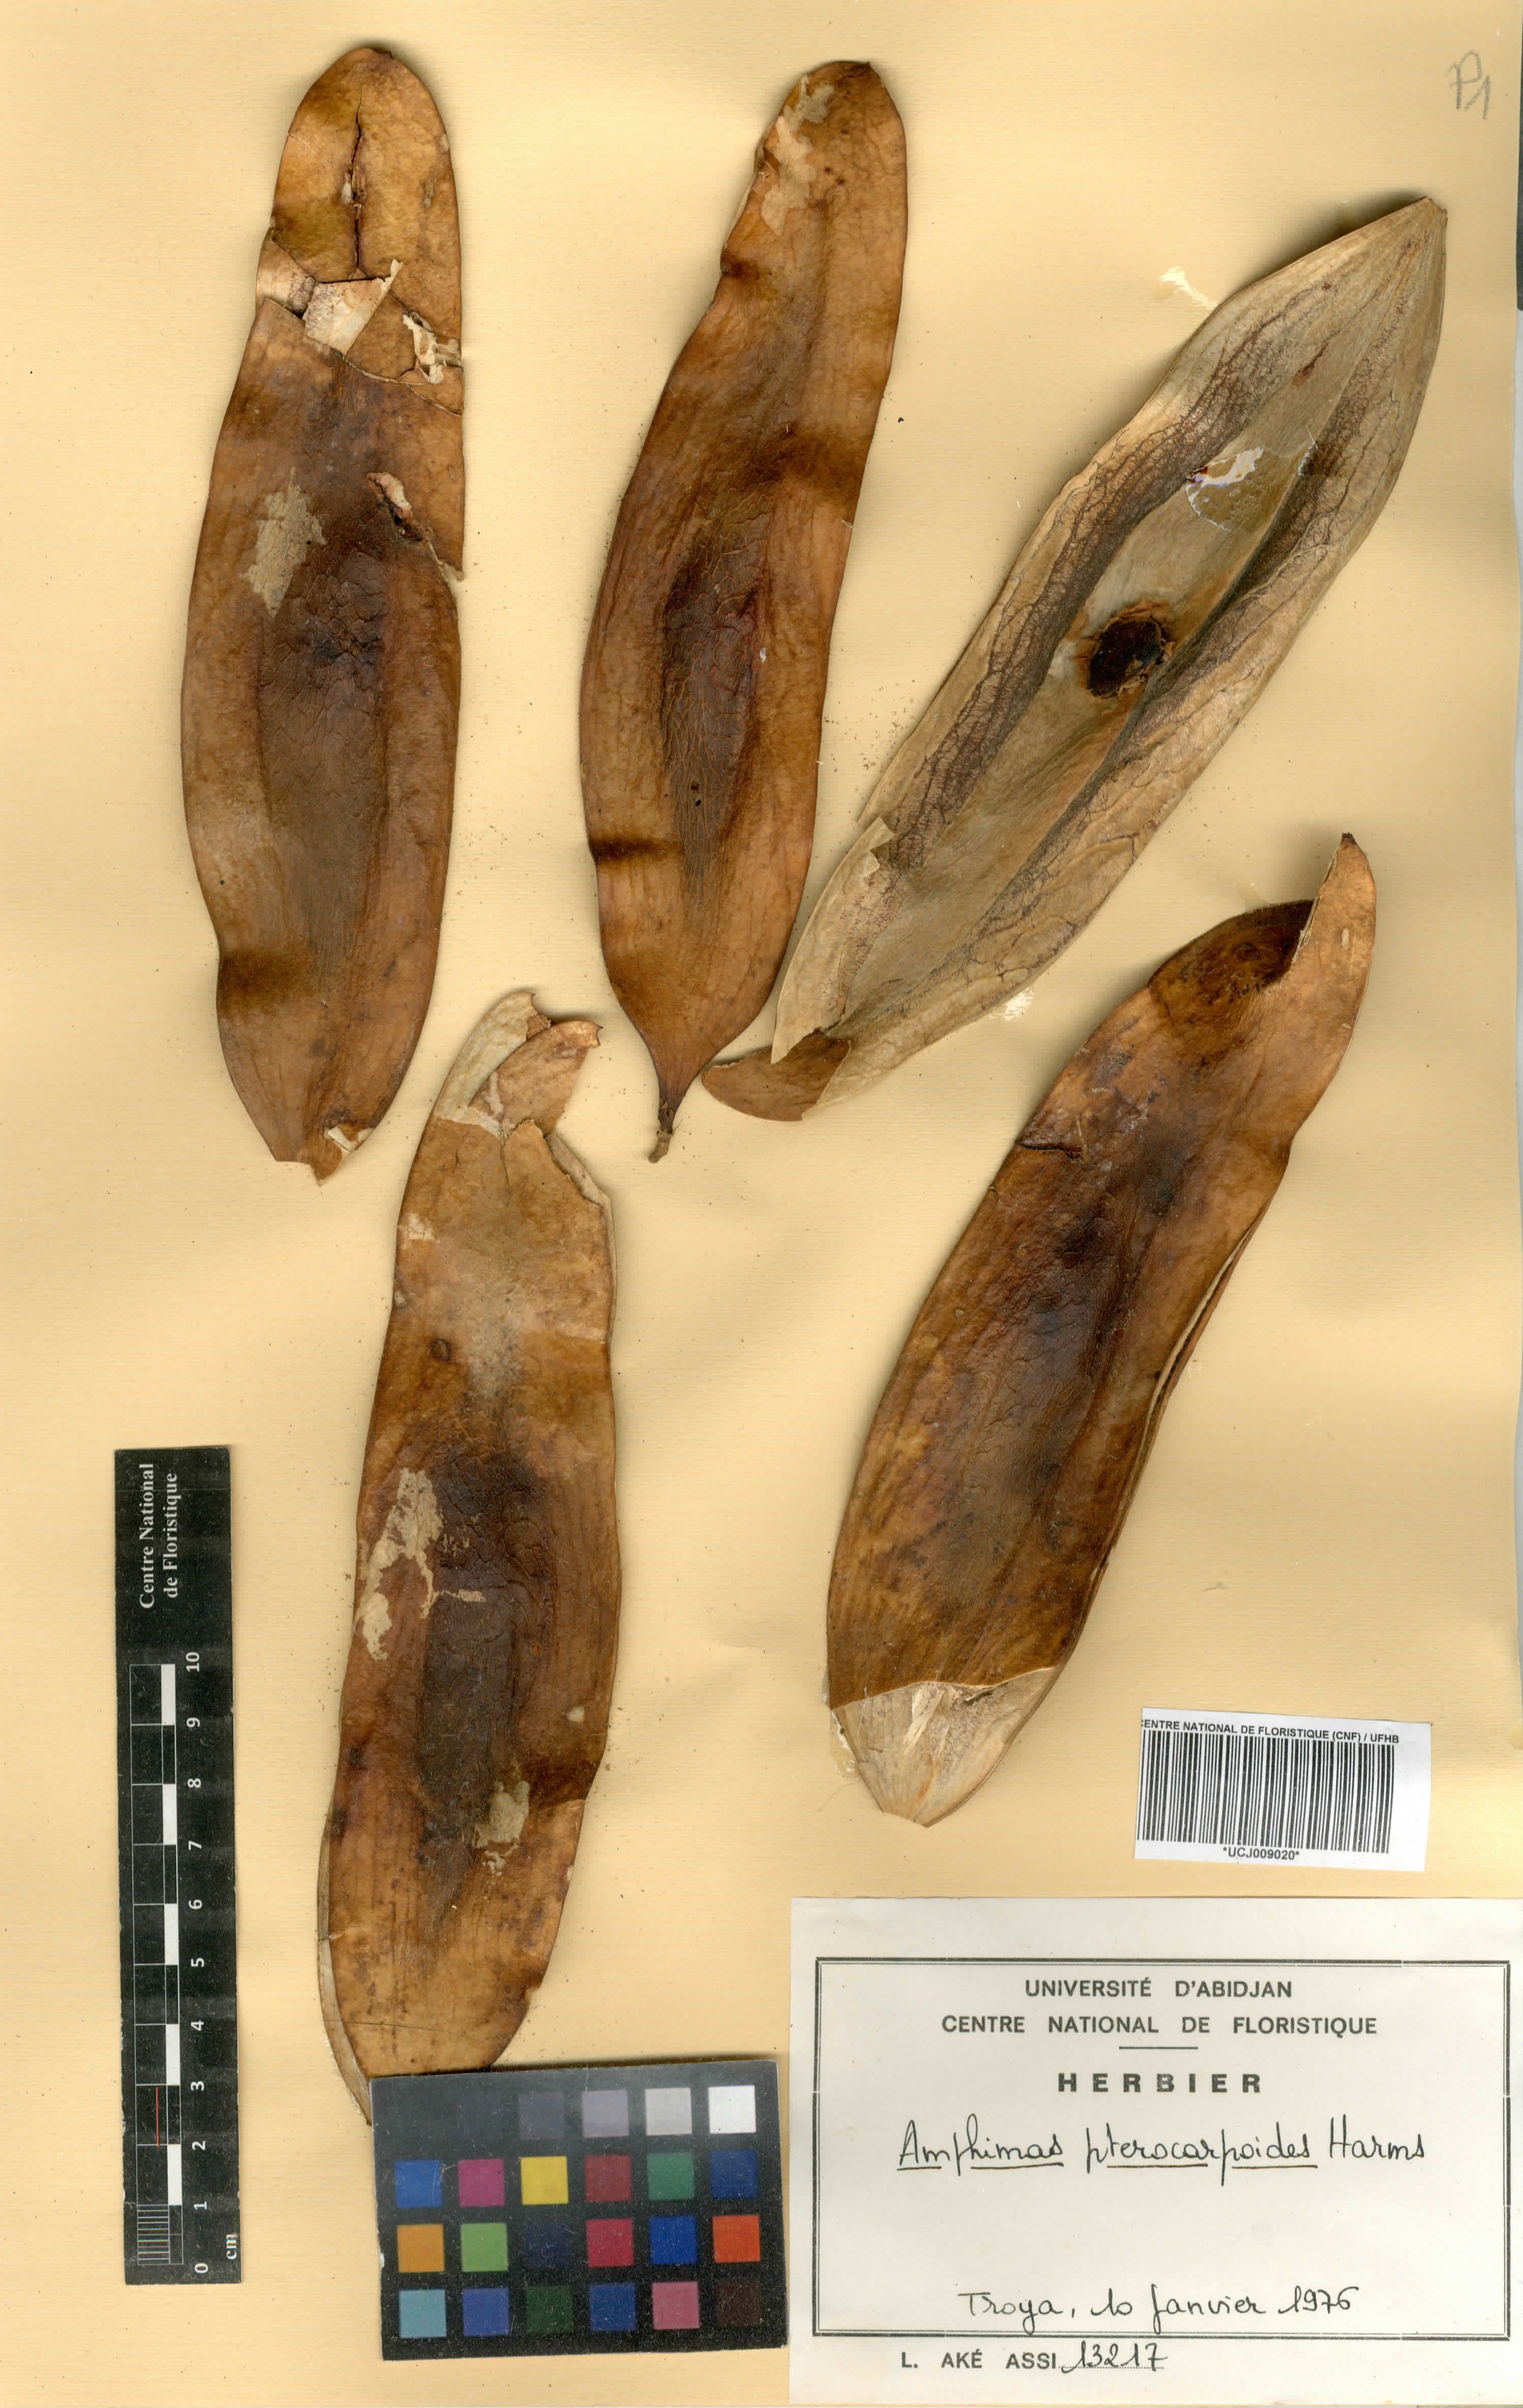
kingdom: Plantae
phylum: Tracheophyta
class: Magnoliopsida
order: Fabales
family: Fabaceae
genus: Amphimas
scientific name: Amphimas pterocarpoides
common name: Bokanga
